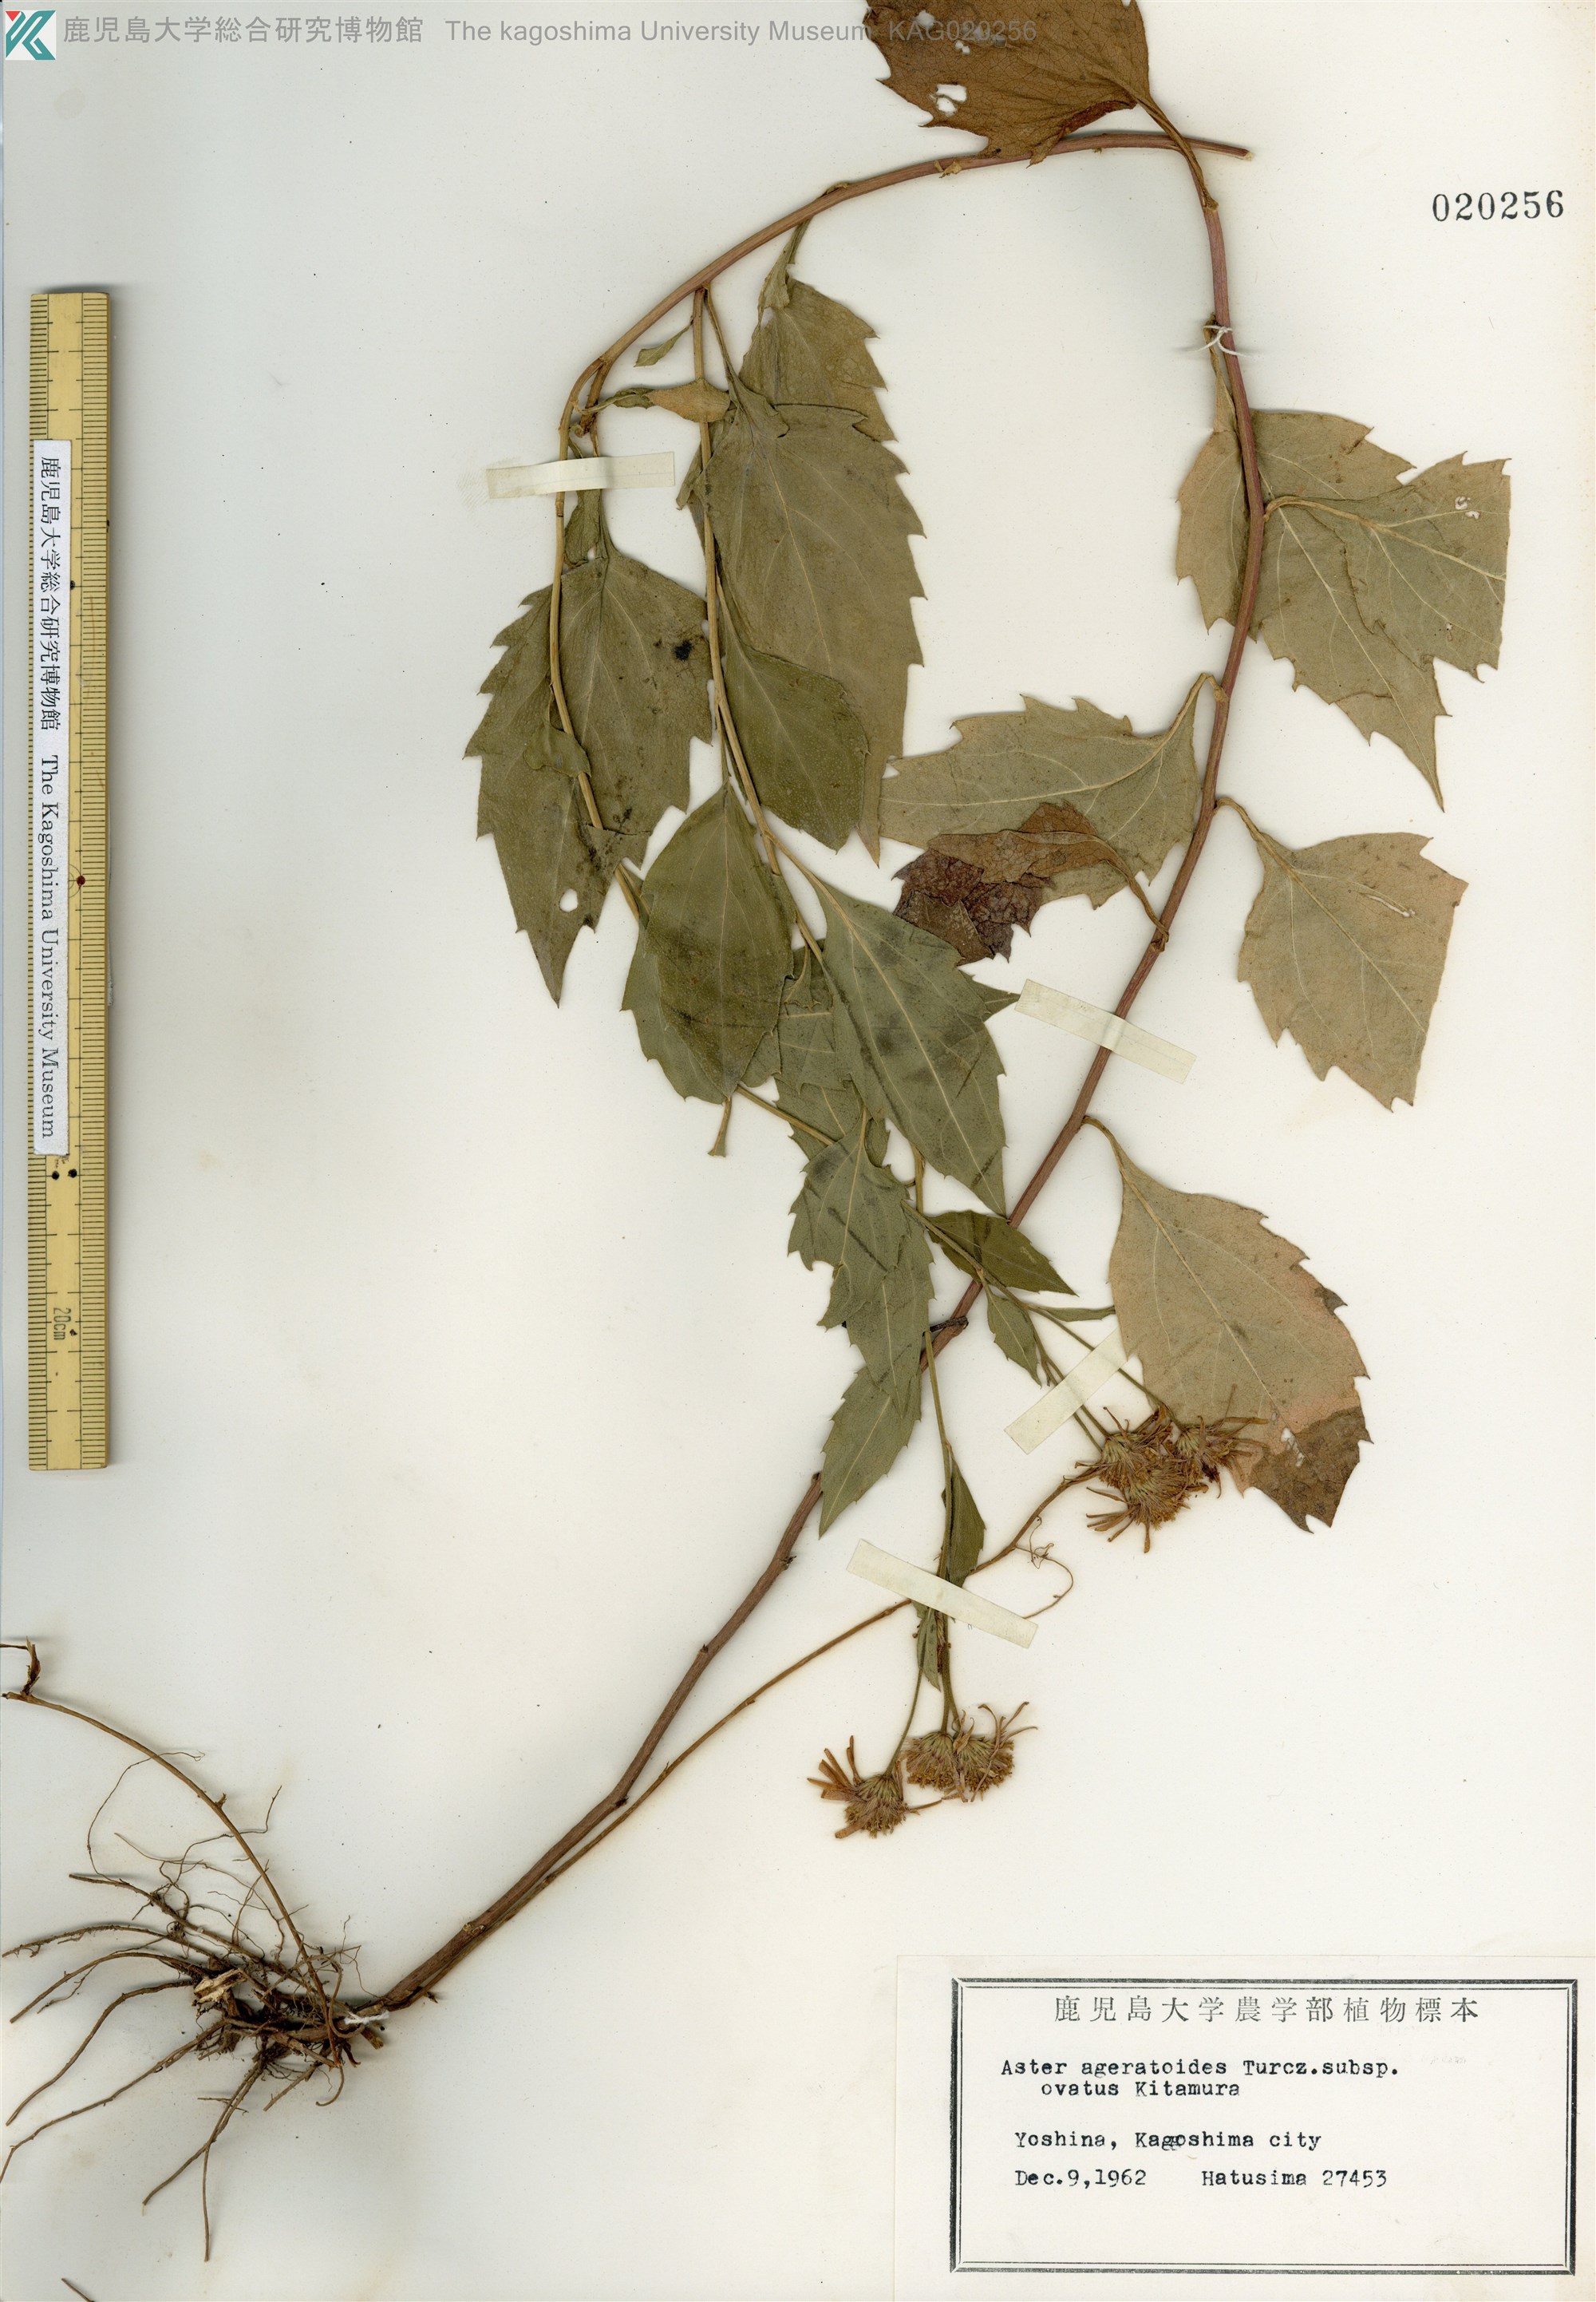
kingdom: Plantae
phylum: Tracheophyta
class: Magnoliopsida
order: Asterales
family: Asteraceae
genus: Aster
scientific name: Aster microcephalus
